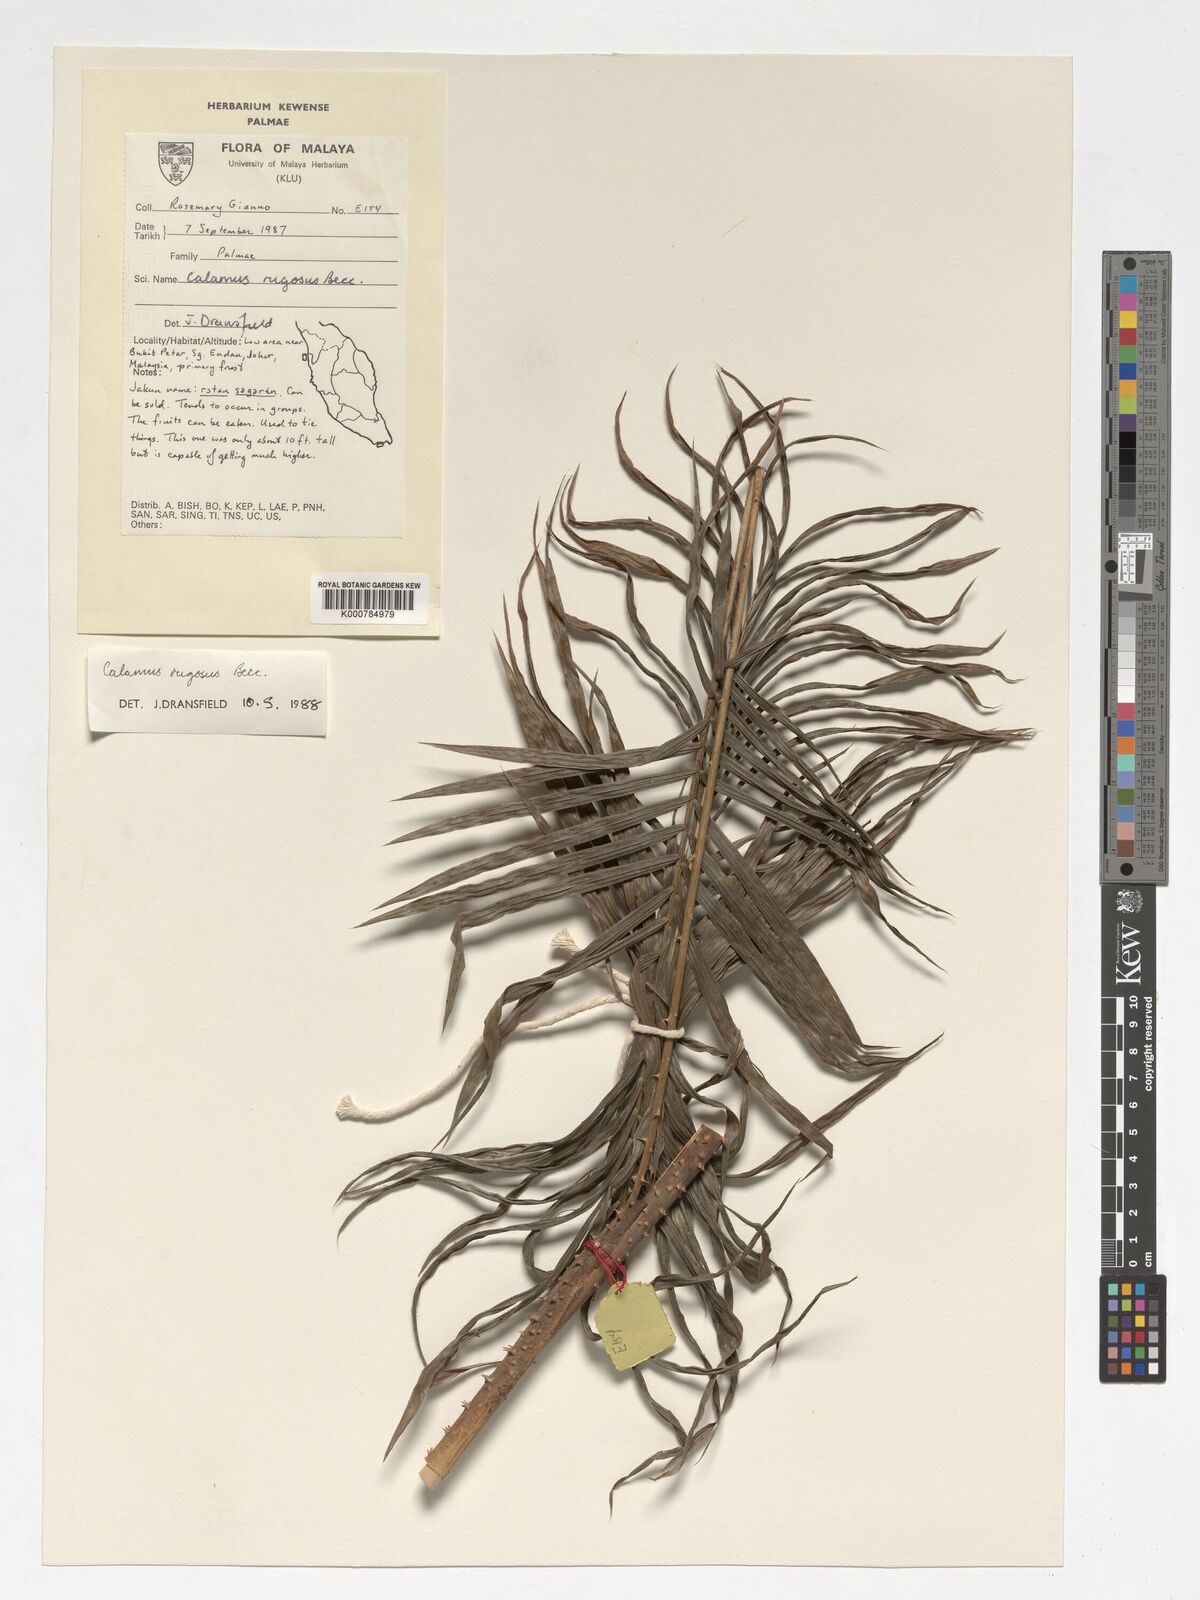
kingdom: Plantae
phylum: Tracheophyta
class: Liliopsida
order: Arecales
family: Arecaceae
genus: Calamus
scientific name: Calamus rugosus
